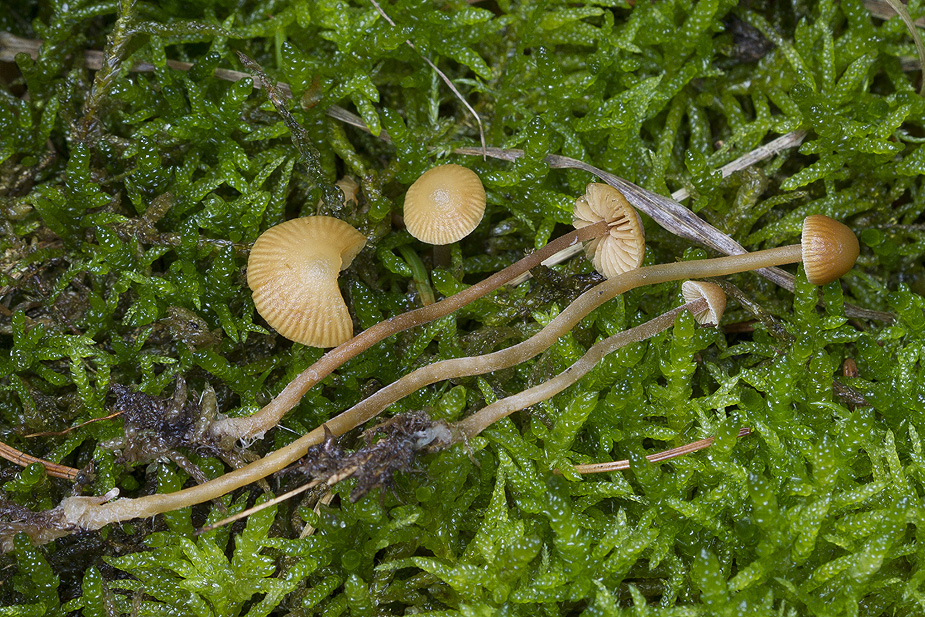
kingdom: Fungi
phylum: Basidiomycota
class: Agaricomycetes
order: Agaricales
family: Hymenogastraceae
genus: Galerina
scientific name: Galerina vittiformis
